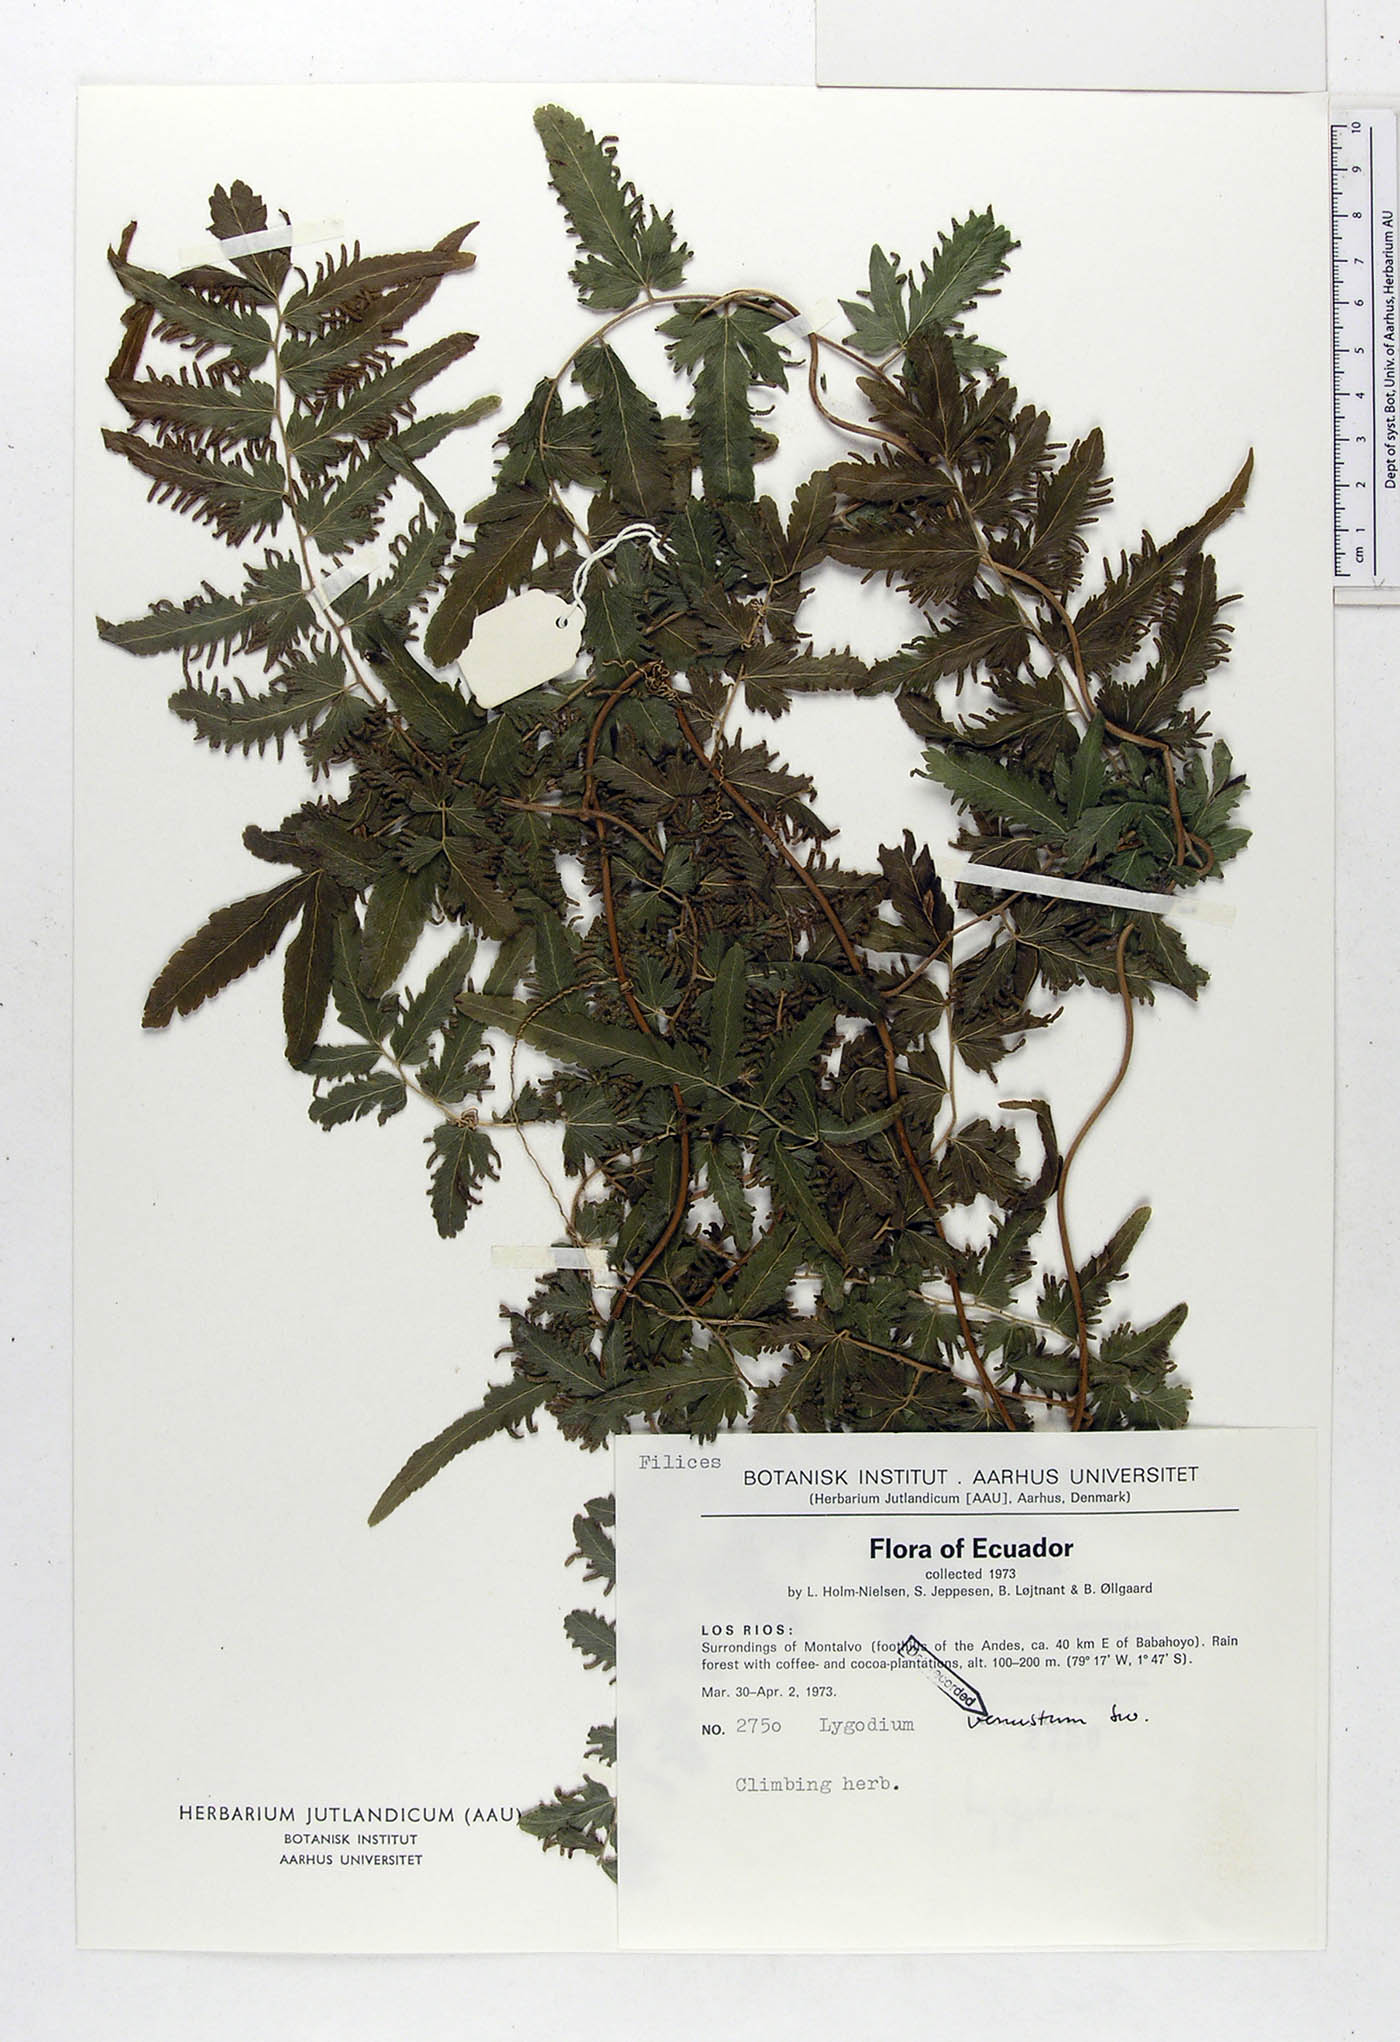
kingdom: Plantae
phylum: Tracheophyta
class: Polypodiopsida
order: Schizaeales
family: Lygodiaceae
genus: Lygodium
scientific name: Lygodium venustum
